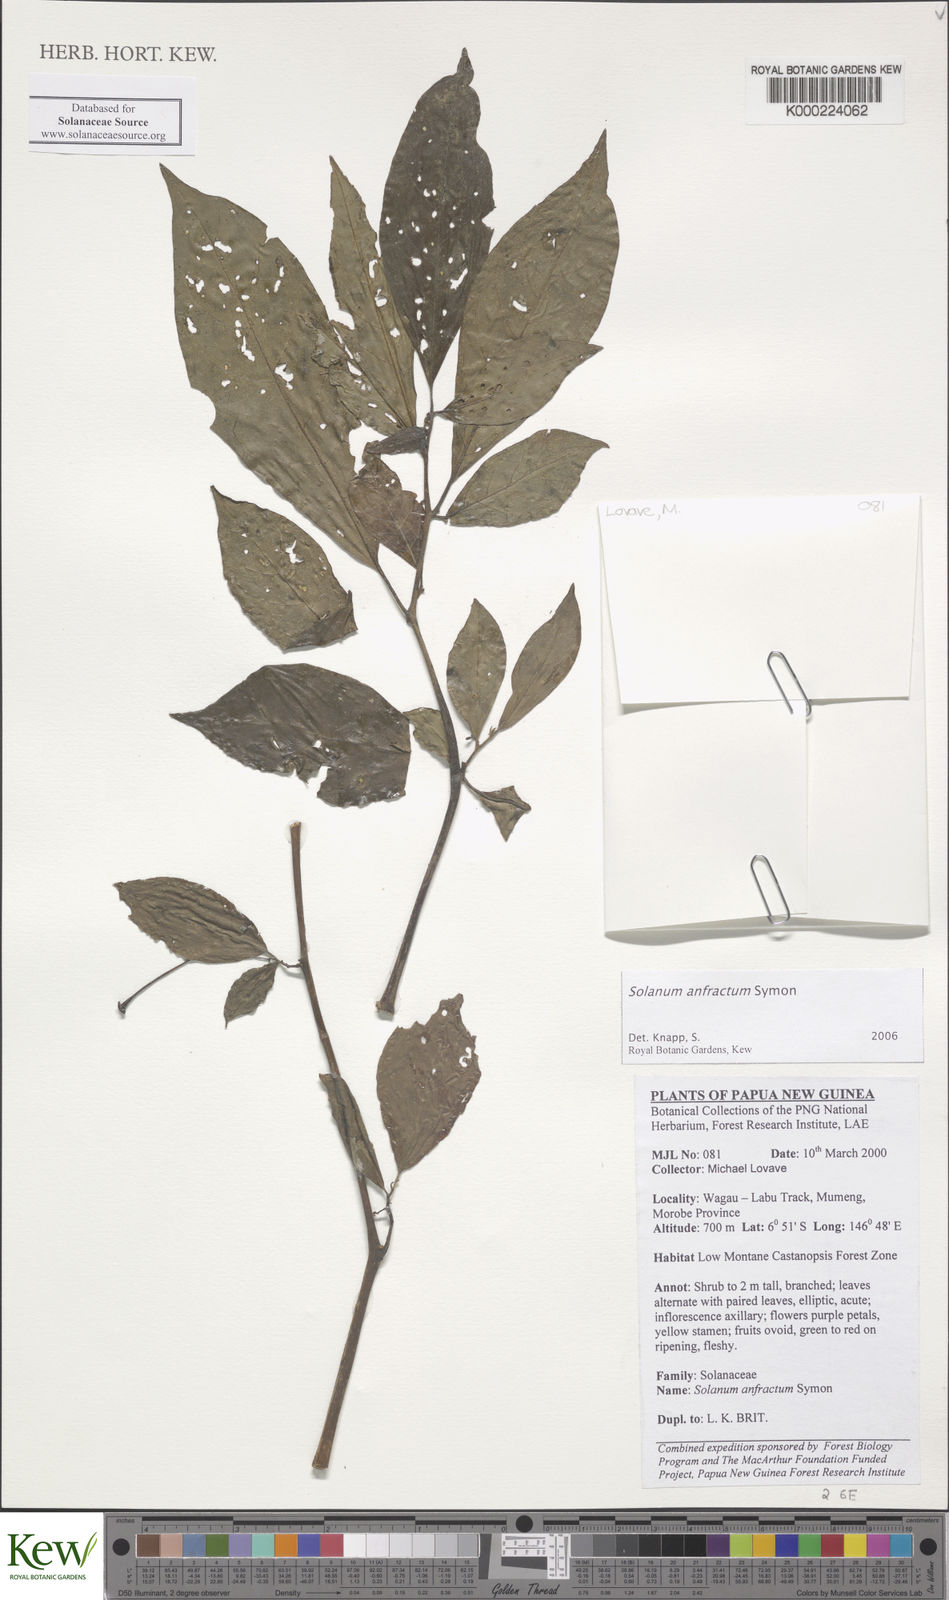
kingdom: Plantae
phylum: Tracheophyta
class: Magnoliopsida
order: Solanales
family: Solanaceae
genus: Solanum
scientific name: Solanum anfractum
